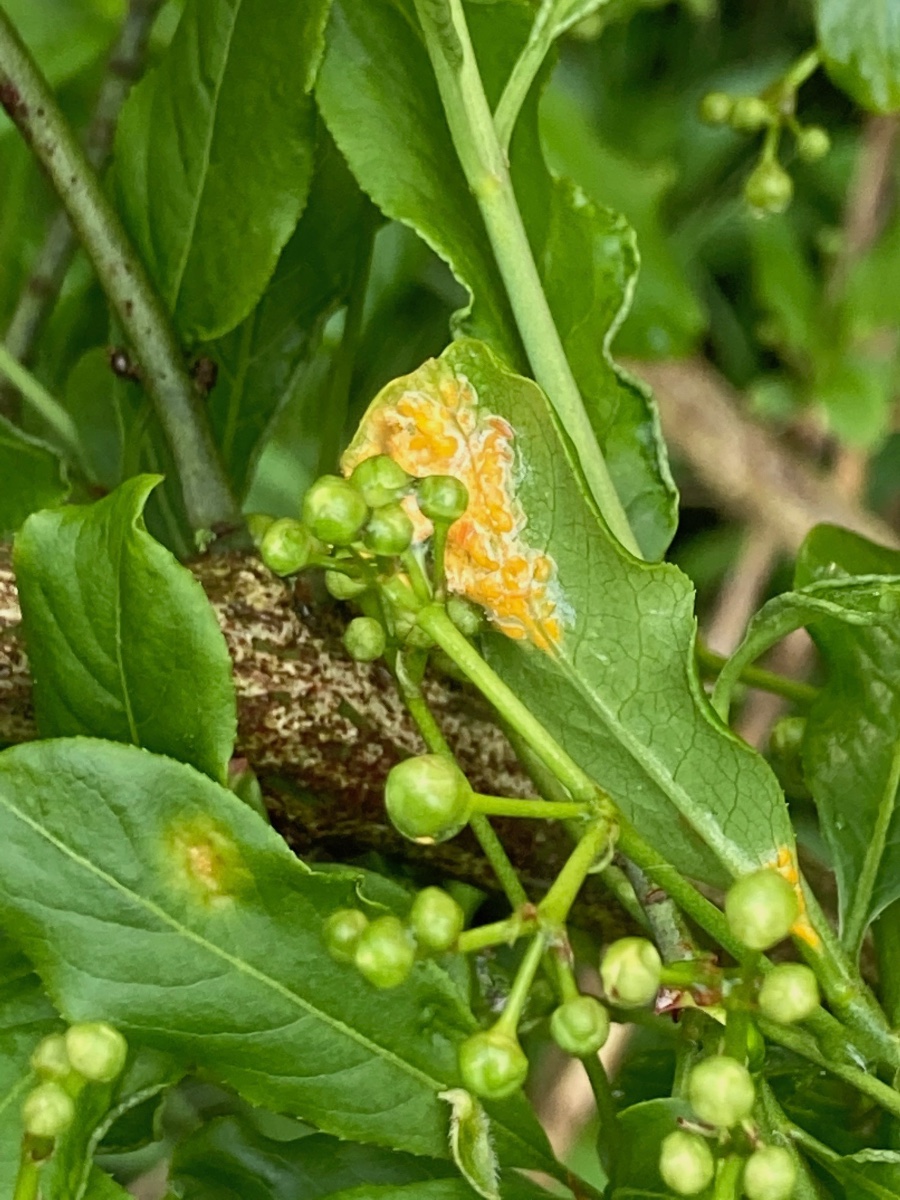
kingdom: Fungi
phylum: Basidiomycota
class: Pucciniomycetes
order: Pucciniales
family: Melampsoraceae
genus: Melampsora
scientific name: Melampsora epitea
